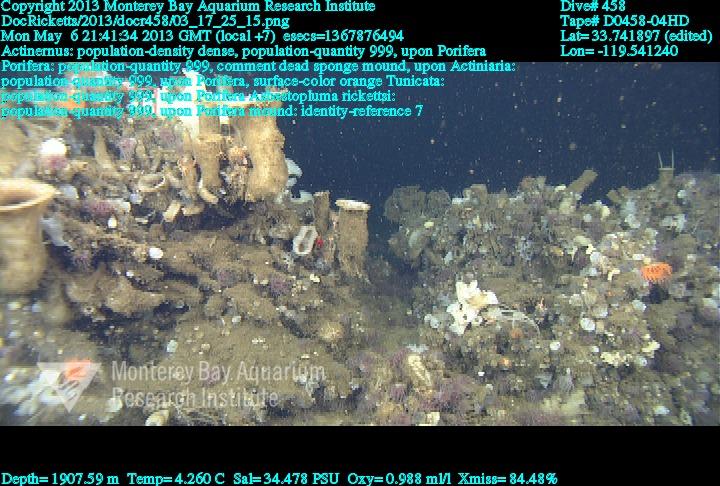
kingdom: Animalia
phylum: Porifera
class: Demospongiae
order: Poecilosclerida
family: Cladorhizidae
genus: Asbestopluma
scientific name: Asbestopluma rickettsi
